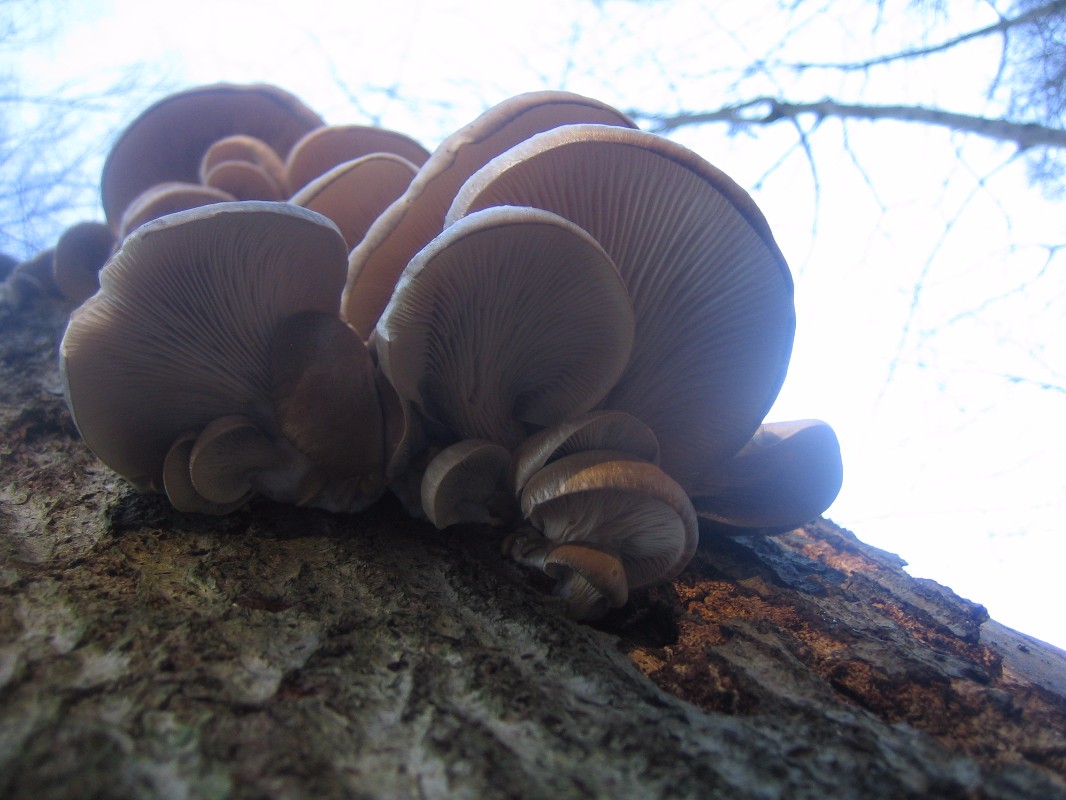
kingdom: Fungi
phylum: Basidiomycota
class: Agaricomycetes
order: Agaricales
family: Pleurotaceae
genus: Pleurotus
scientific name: Pleurotus ostreatus
